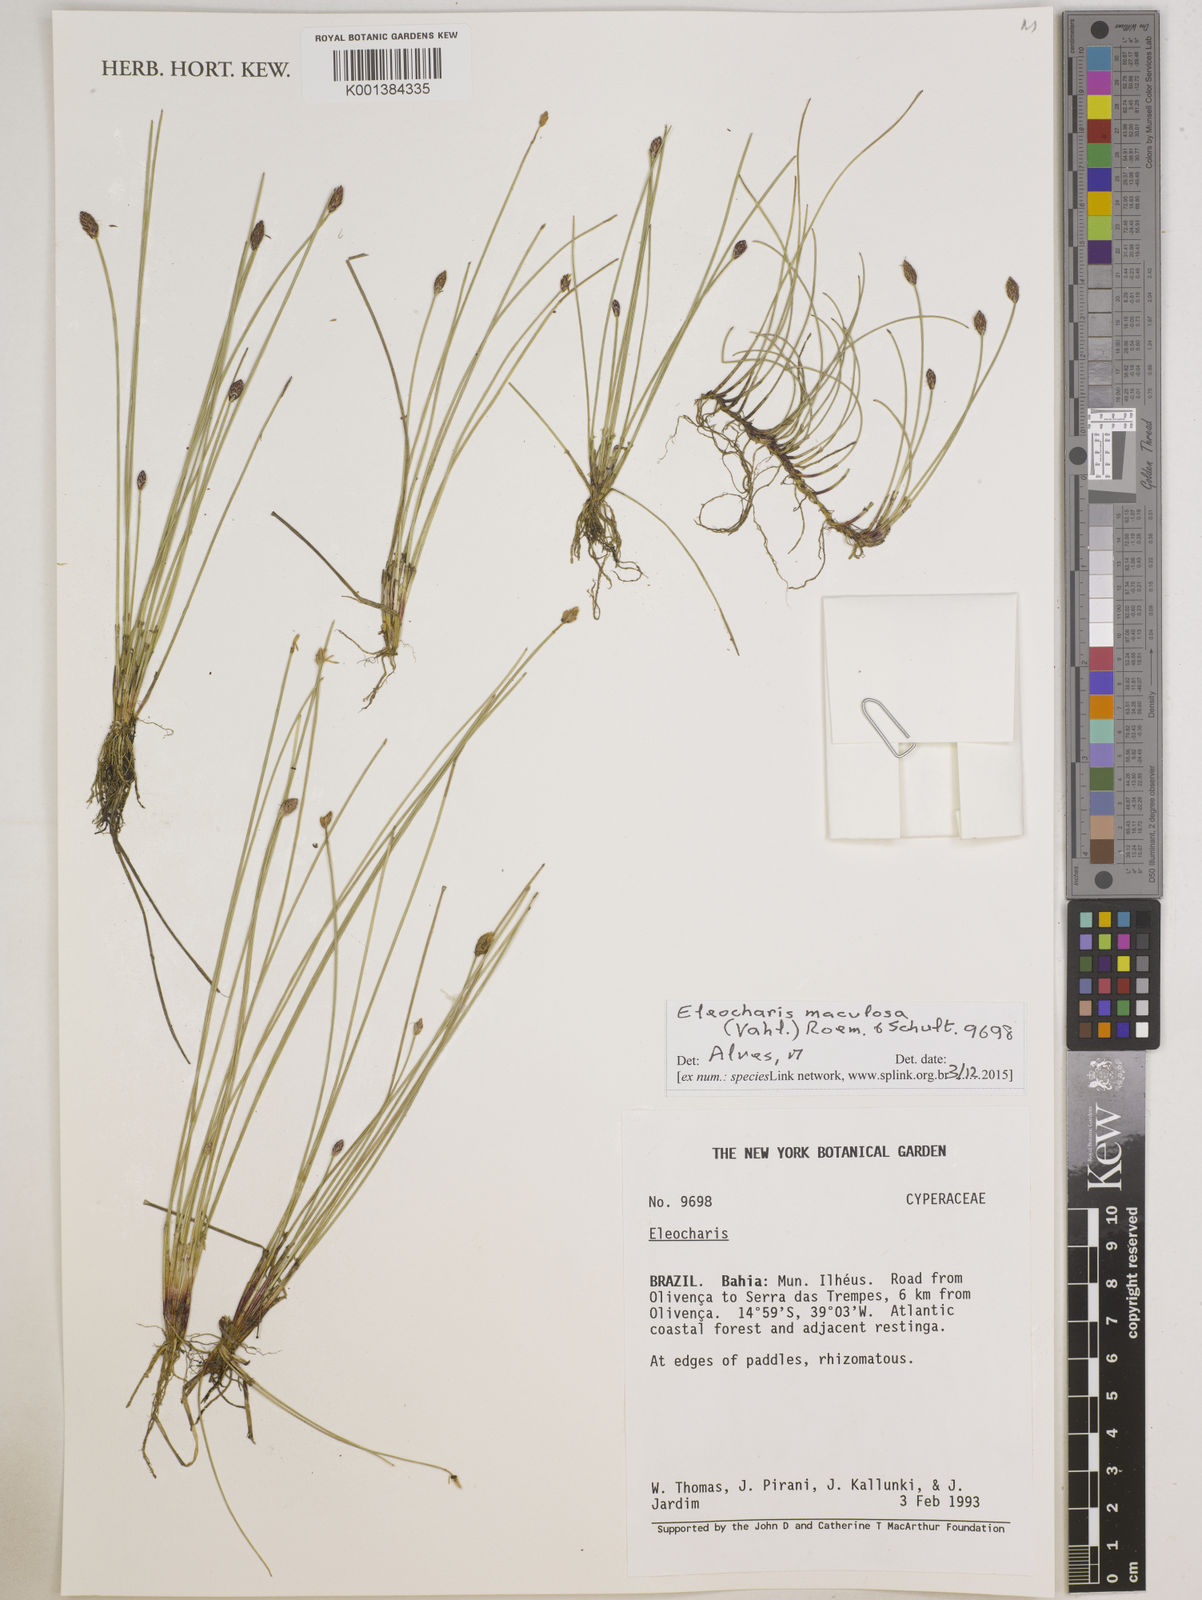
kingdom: Plantae
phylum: Tracheophyta
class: Liliopsida
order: Poales
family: Cyperaceae
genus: Eleocharis
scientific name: Eleocharis maculosa
